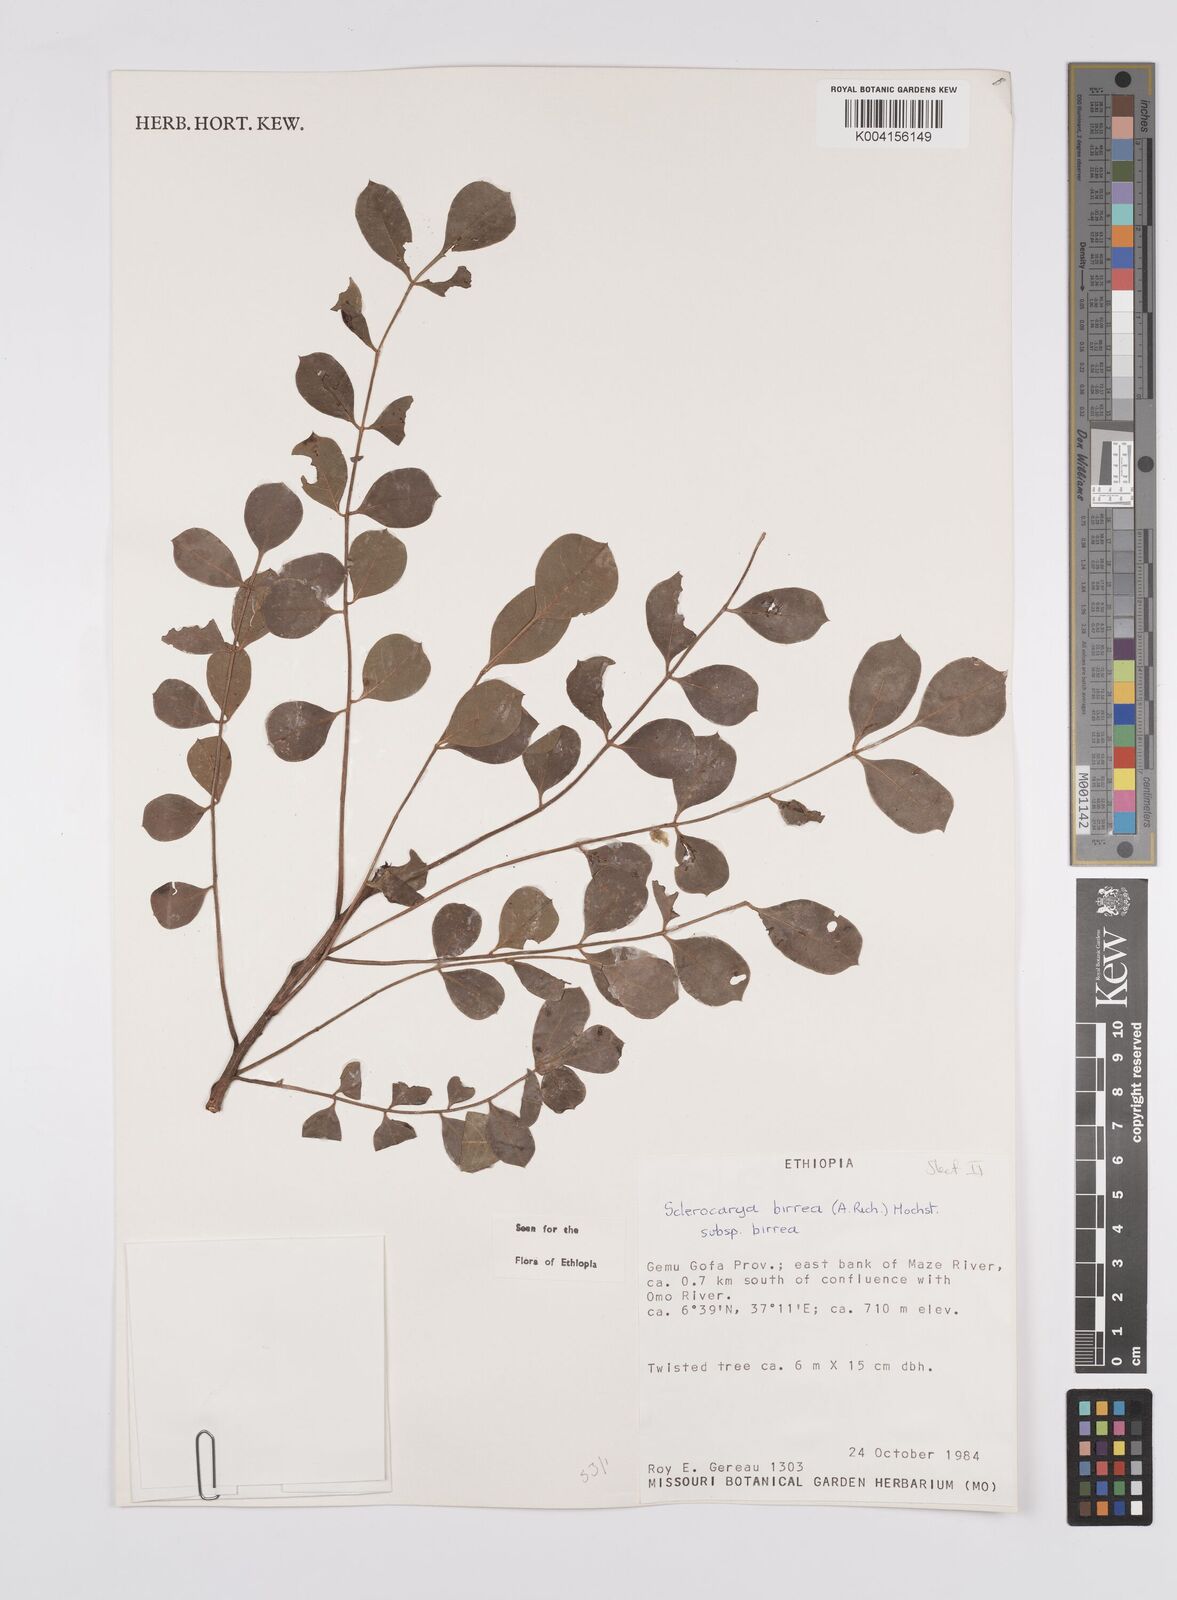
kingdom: Plantae
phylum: Tracheophyta
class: Magnoliopsida
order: Sapindales
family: Anacardiaceae
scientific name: Anacardiaceae
